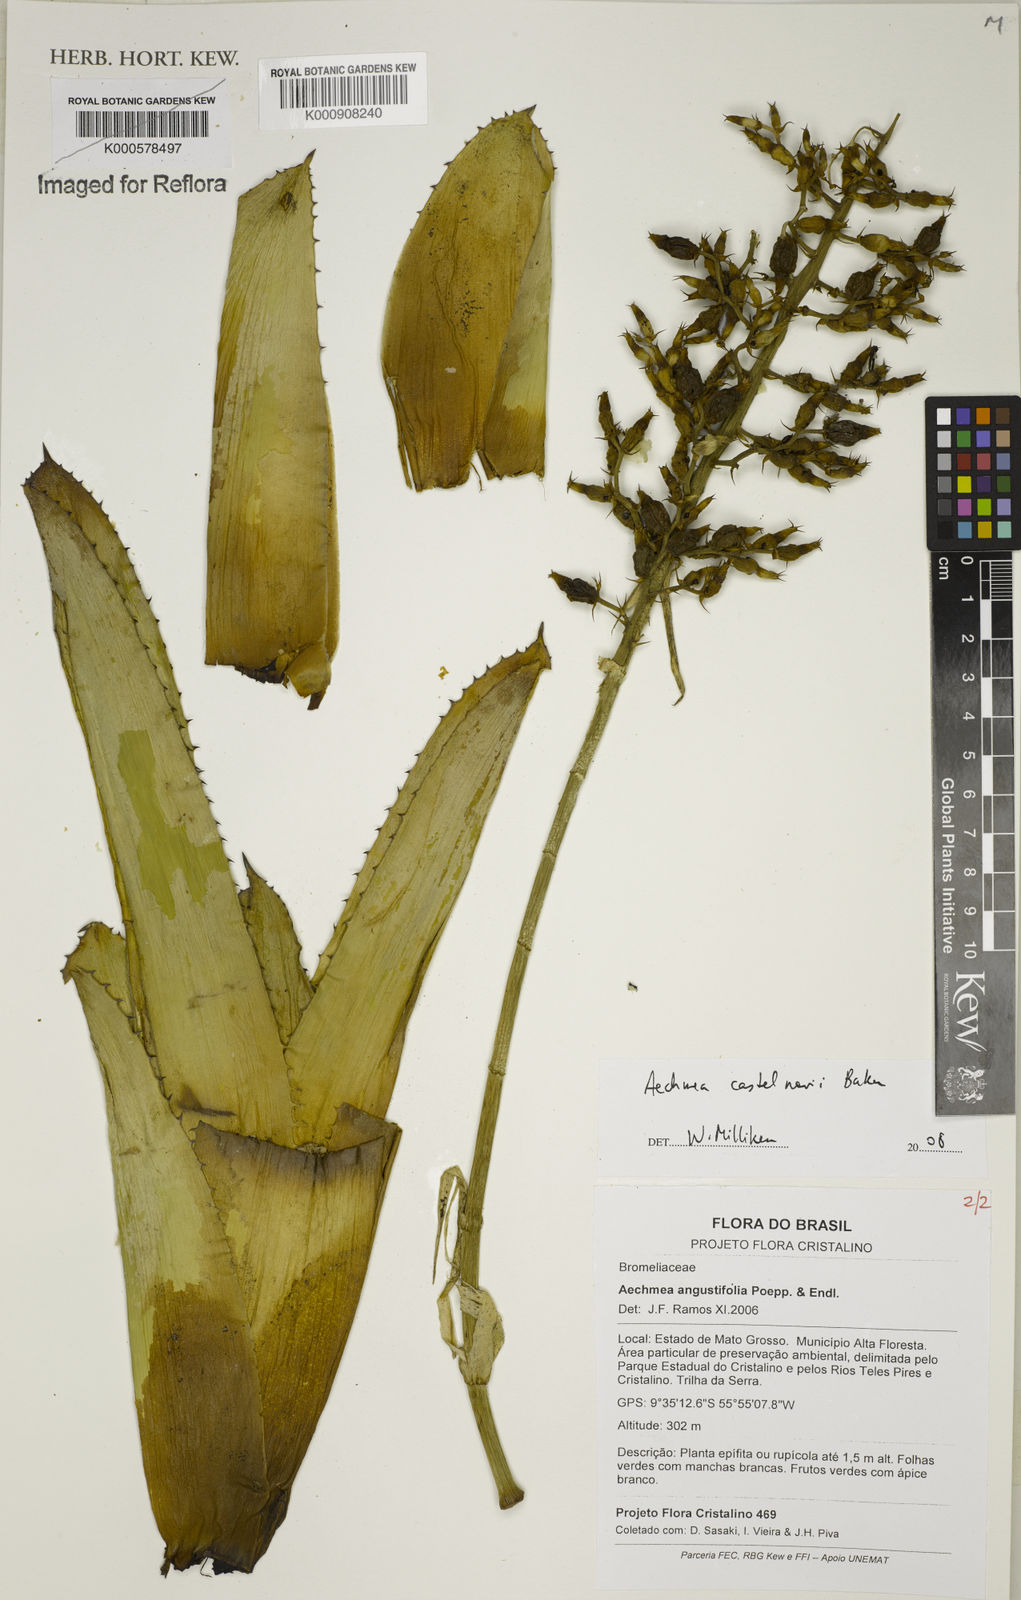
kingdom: Plantae
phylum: Tracheophyta
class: Liliopsida
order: Poales
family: Bromeliaceae
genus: Aechmea
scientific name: Aechmea castelnavii
